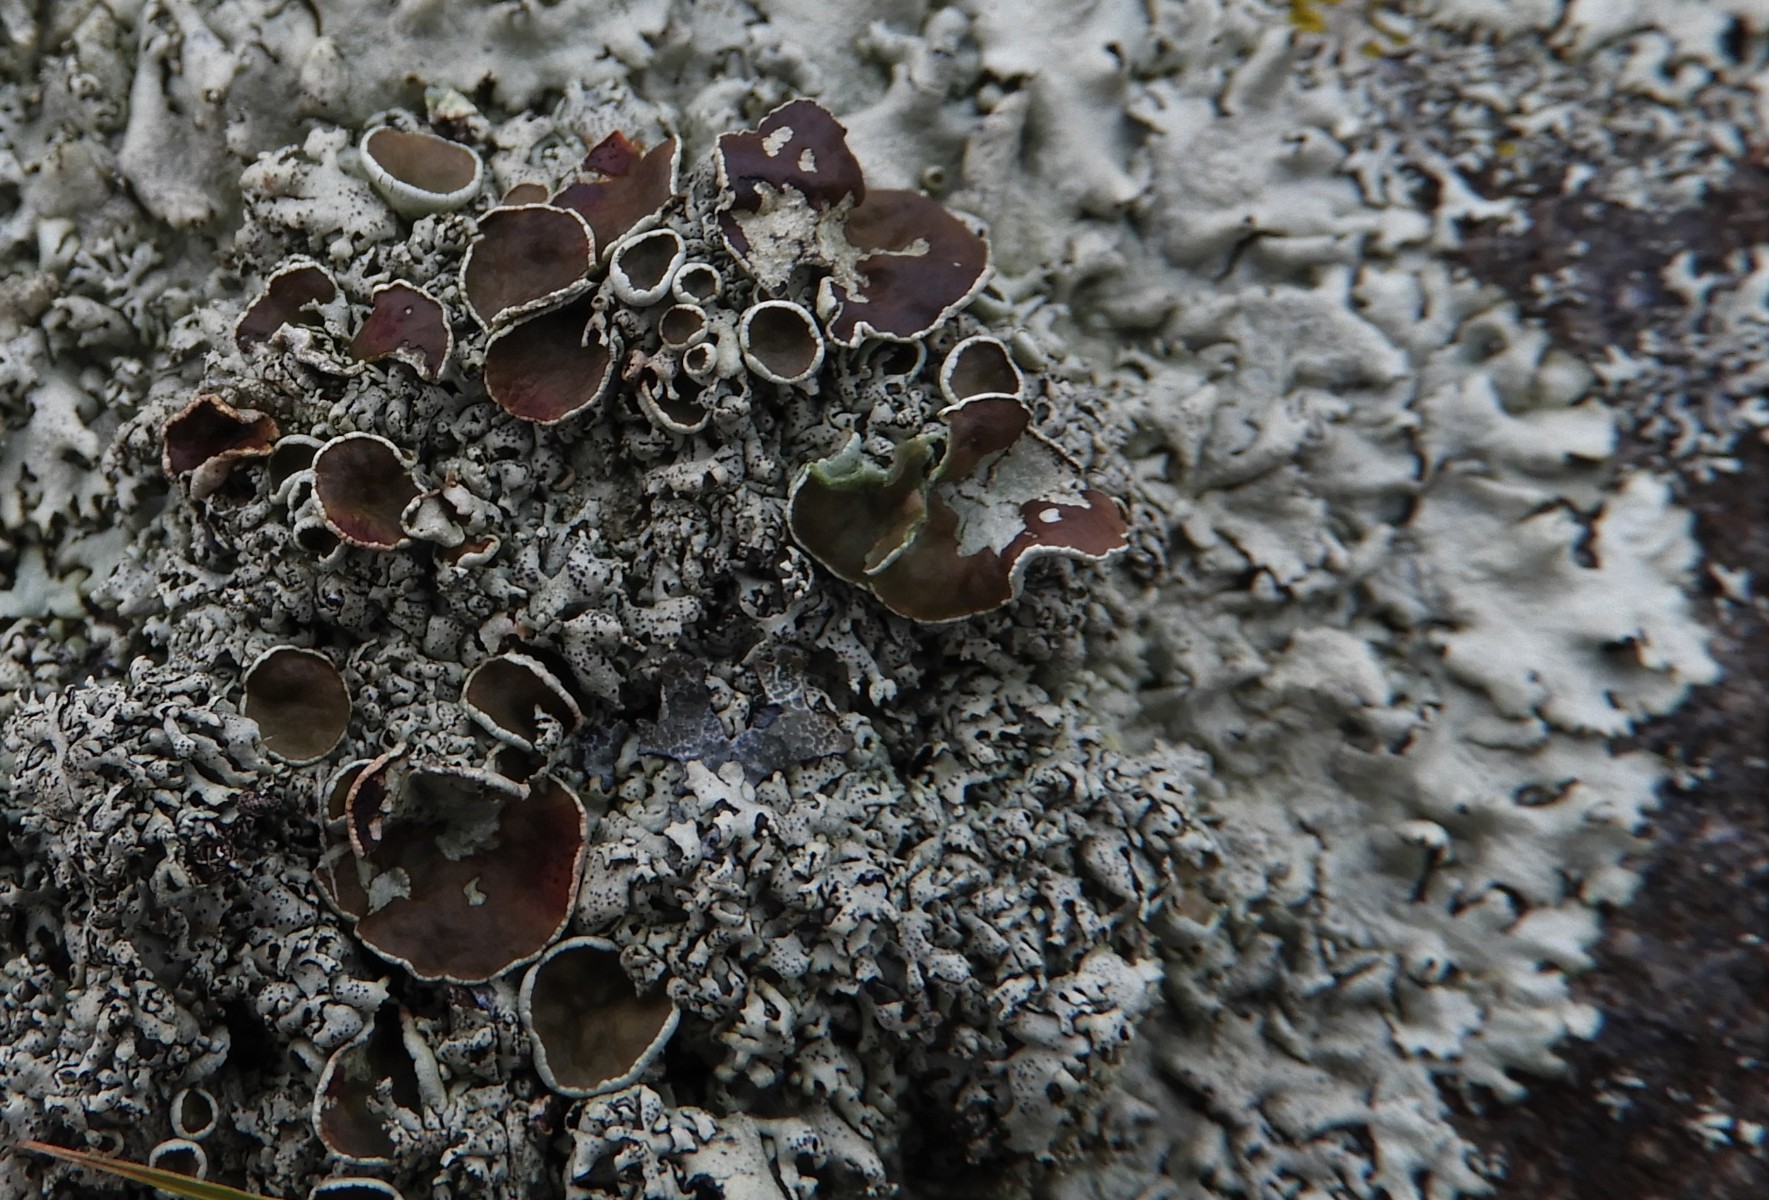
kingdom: Fungi
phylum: Ascomycota
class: Lecanoromycetes
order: Lecanorales
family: Parmeliaceae
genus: Xanthoparmelia
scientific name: Xanthoparmelia conspersa
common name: messing-skållav
